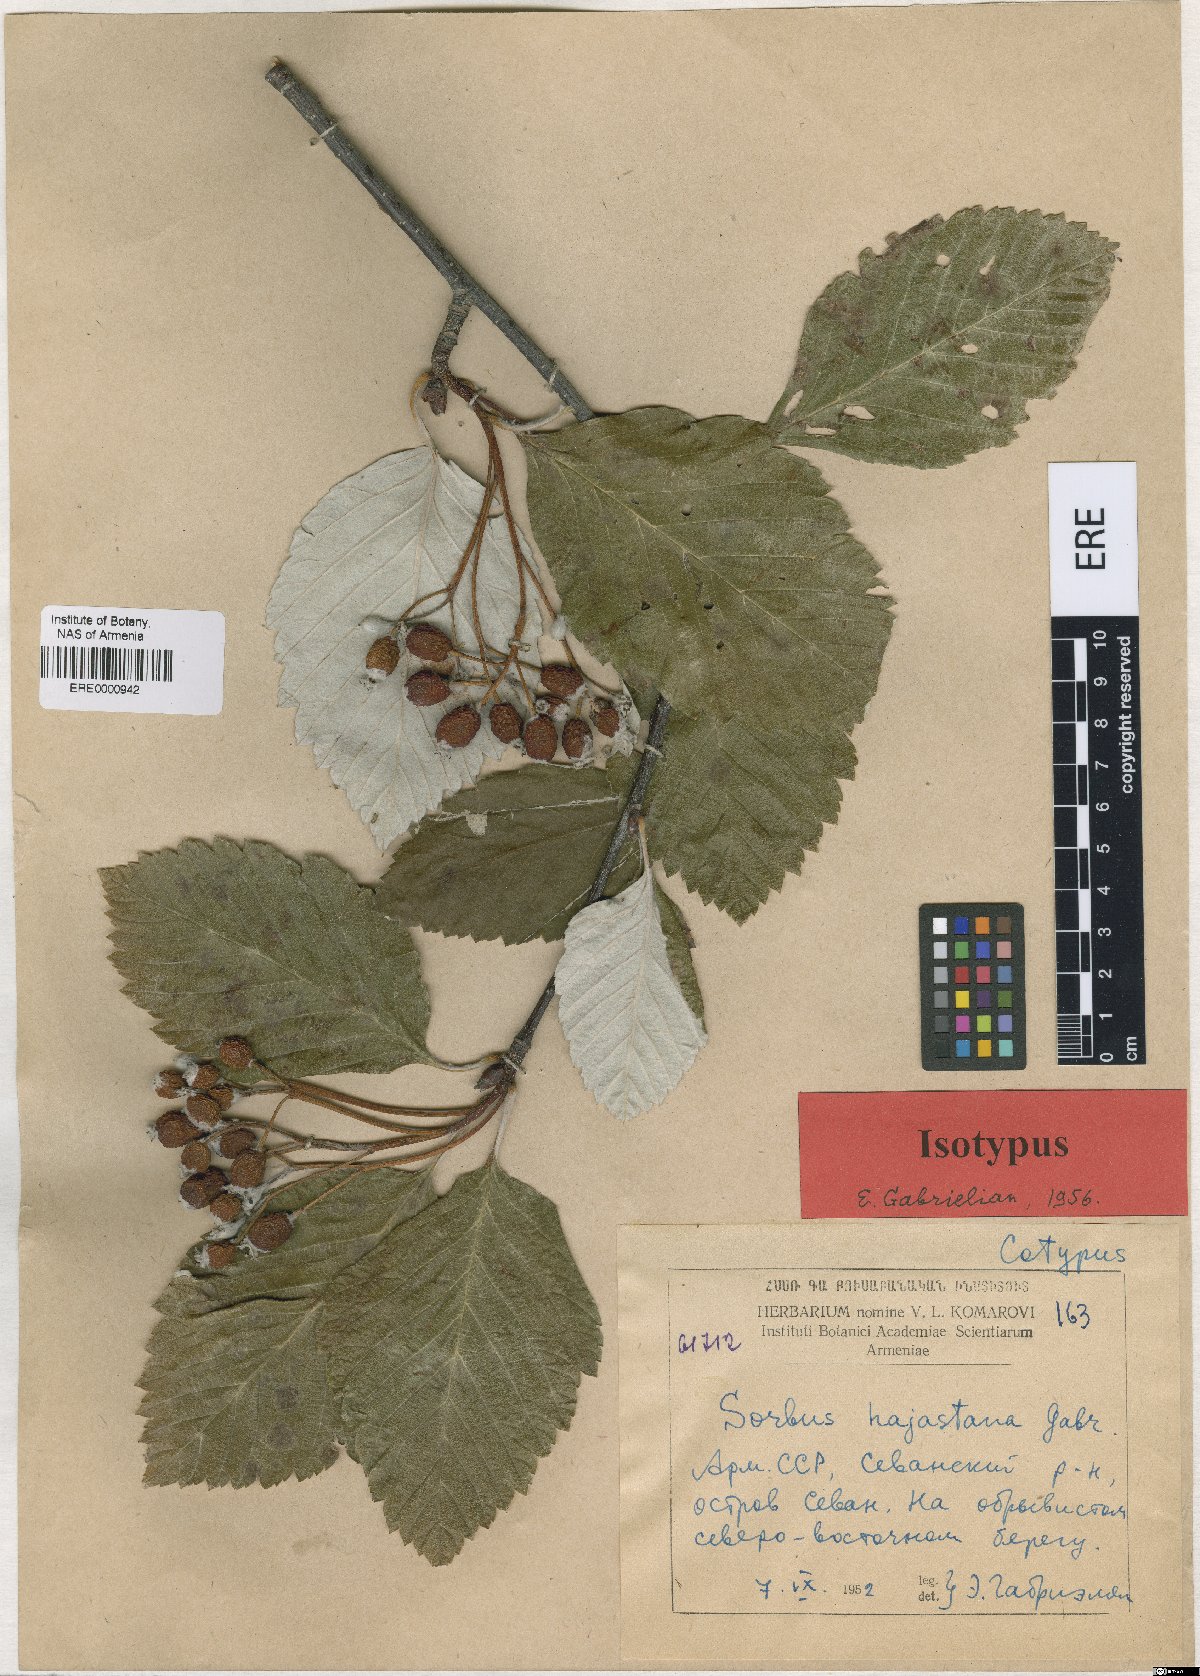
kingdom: Plantae
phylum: Tracheophyta
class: Magnoliopsida
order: Rosales
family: Rosaceae
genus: Sorbus
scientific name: Sorbus hajastana
